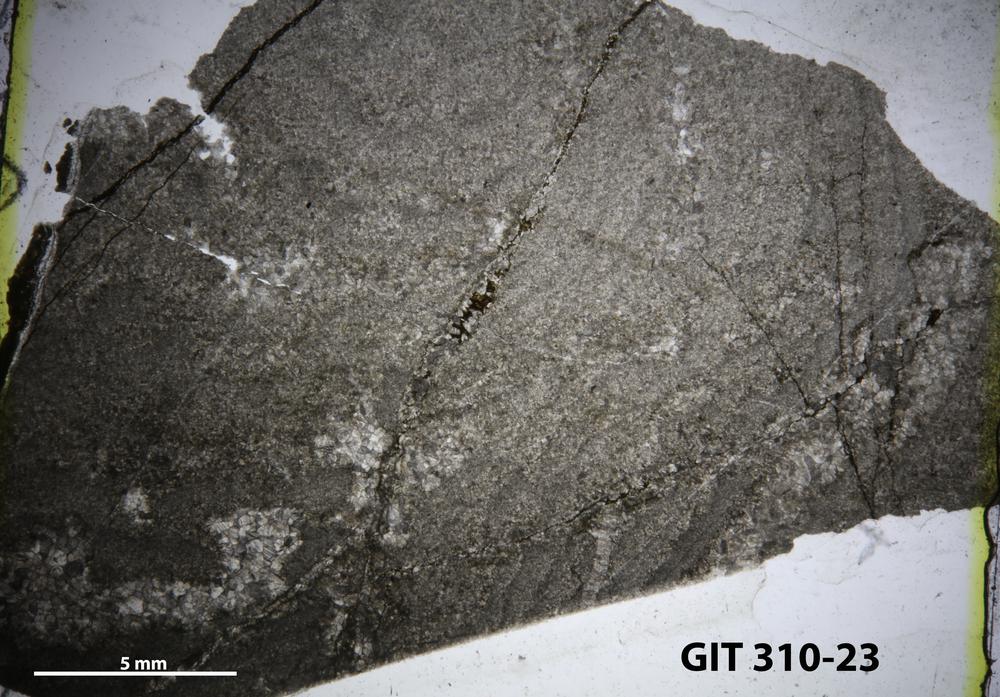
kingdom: Animalia
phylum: Porifera
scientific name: Porifera
